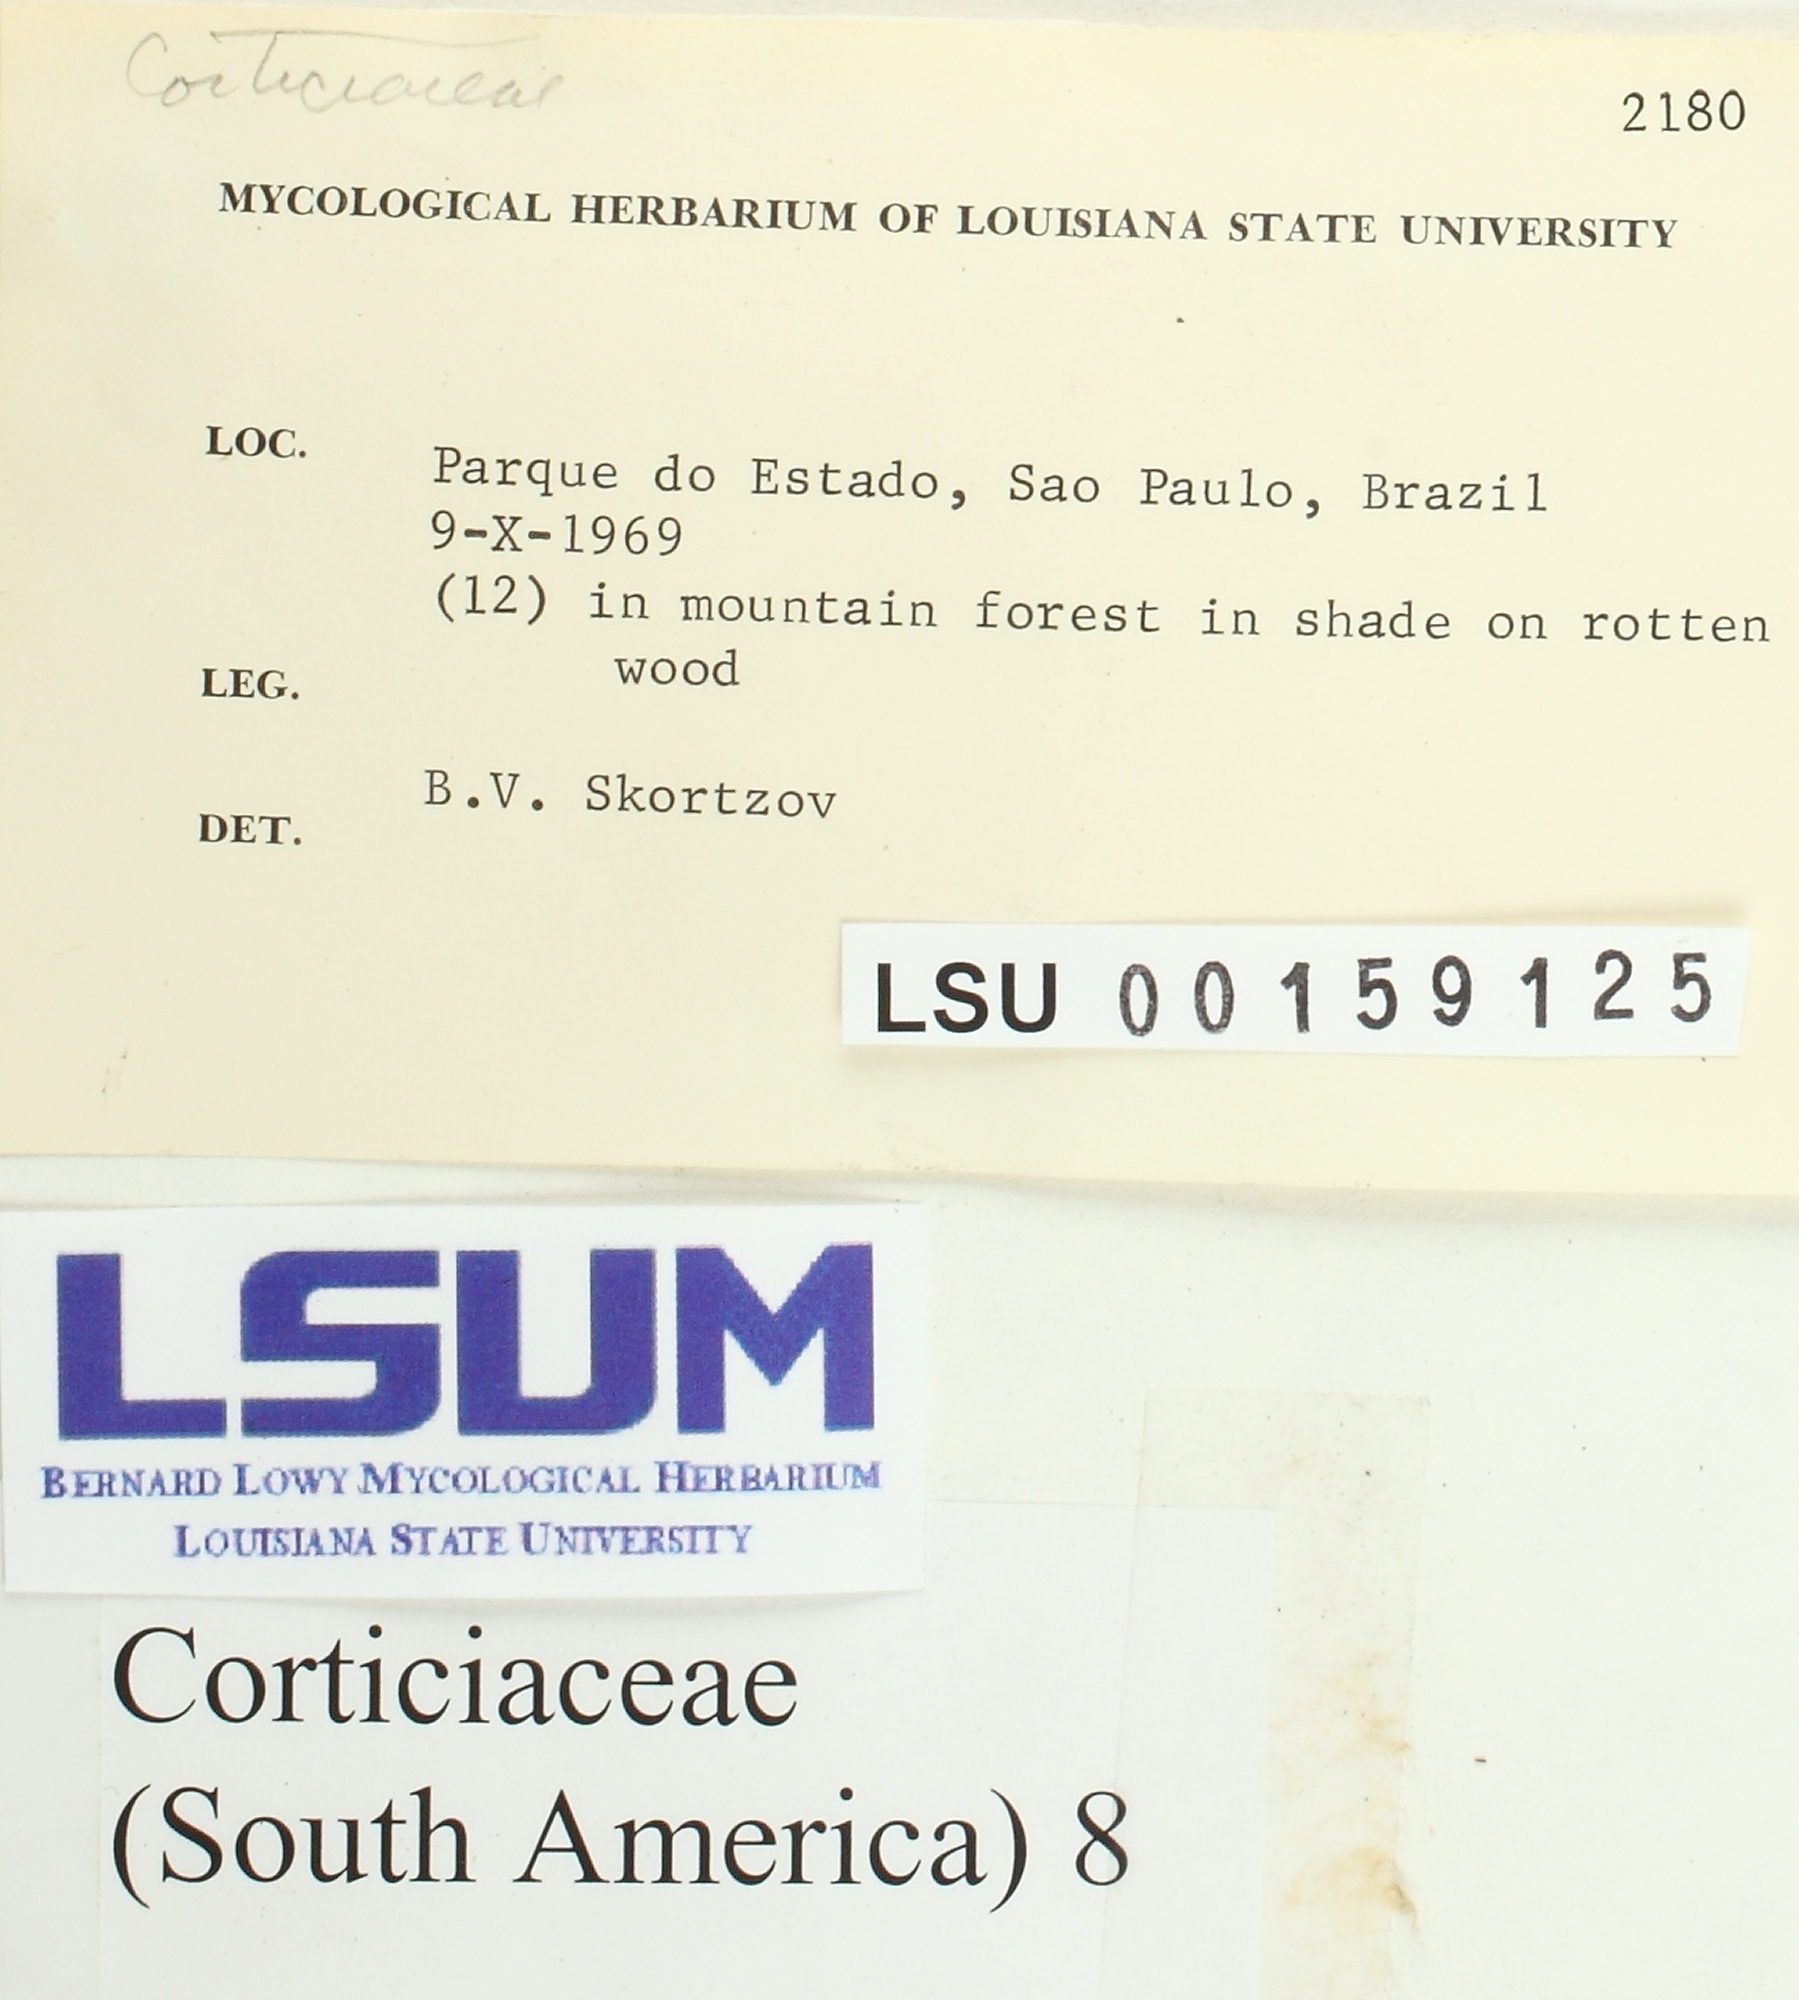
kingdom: Fungi
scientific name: Fungi
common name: Fungi
